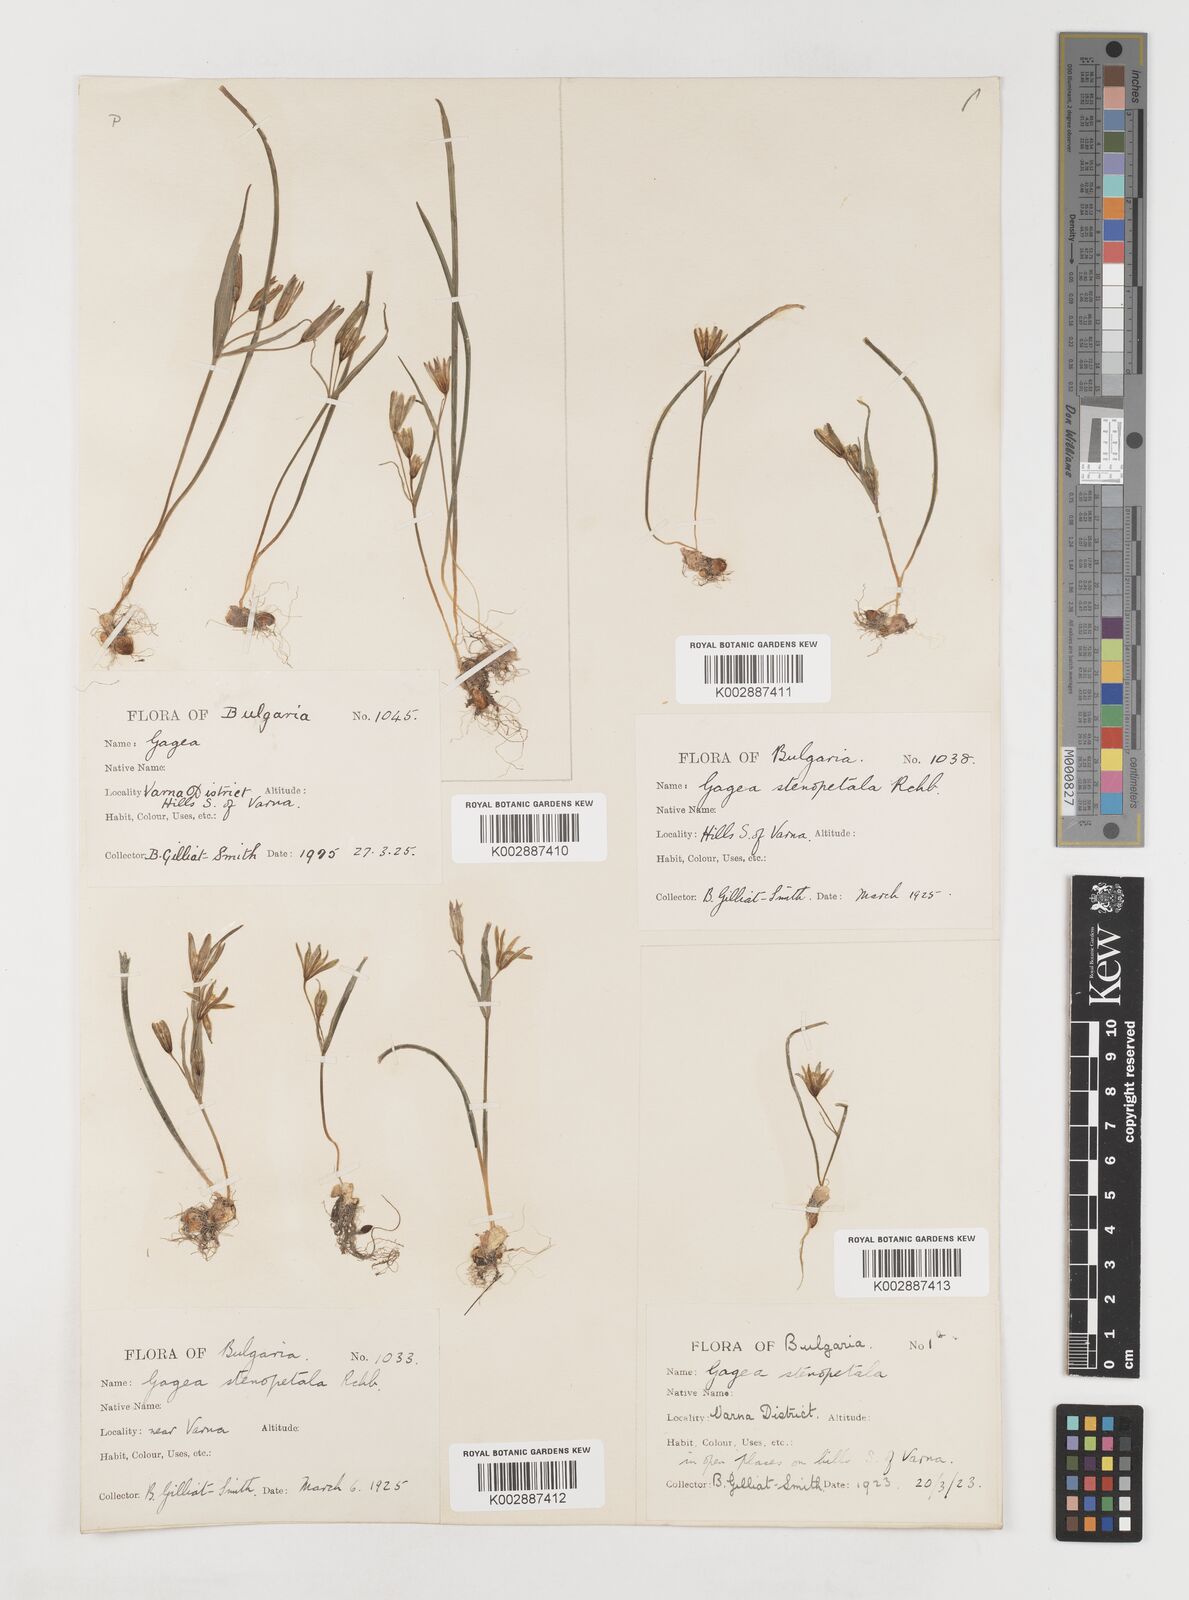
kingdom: Plantae
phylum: Tracheophyta
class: Liliopsida
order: Liliales
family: Liliaceae
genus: Gagea
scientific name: Gagea pratensis
